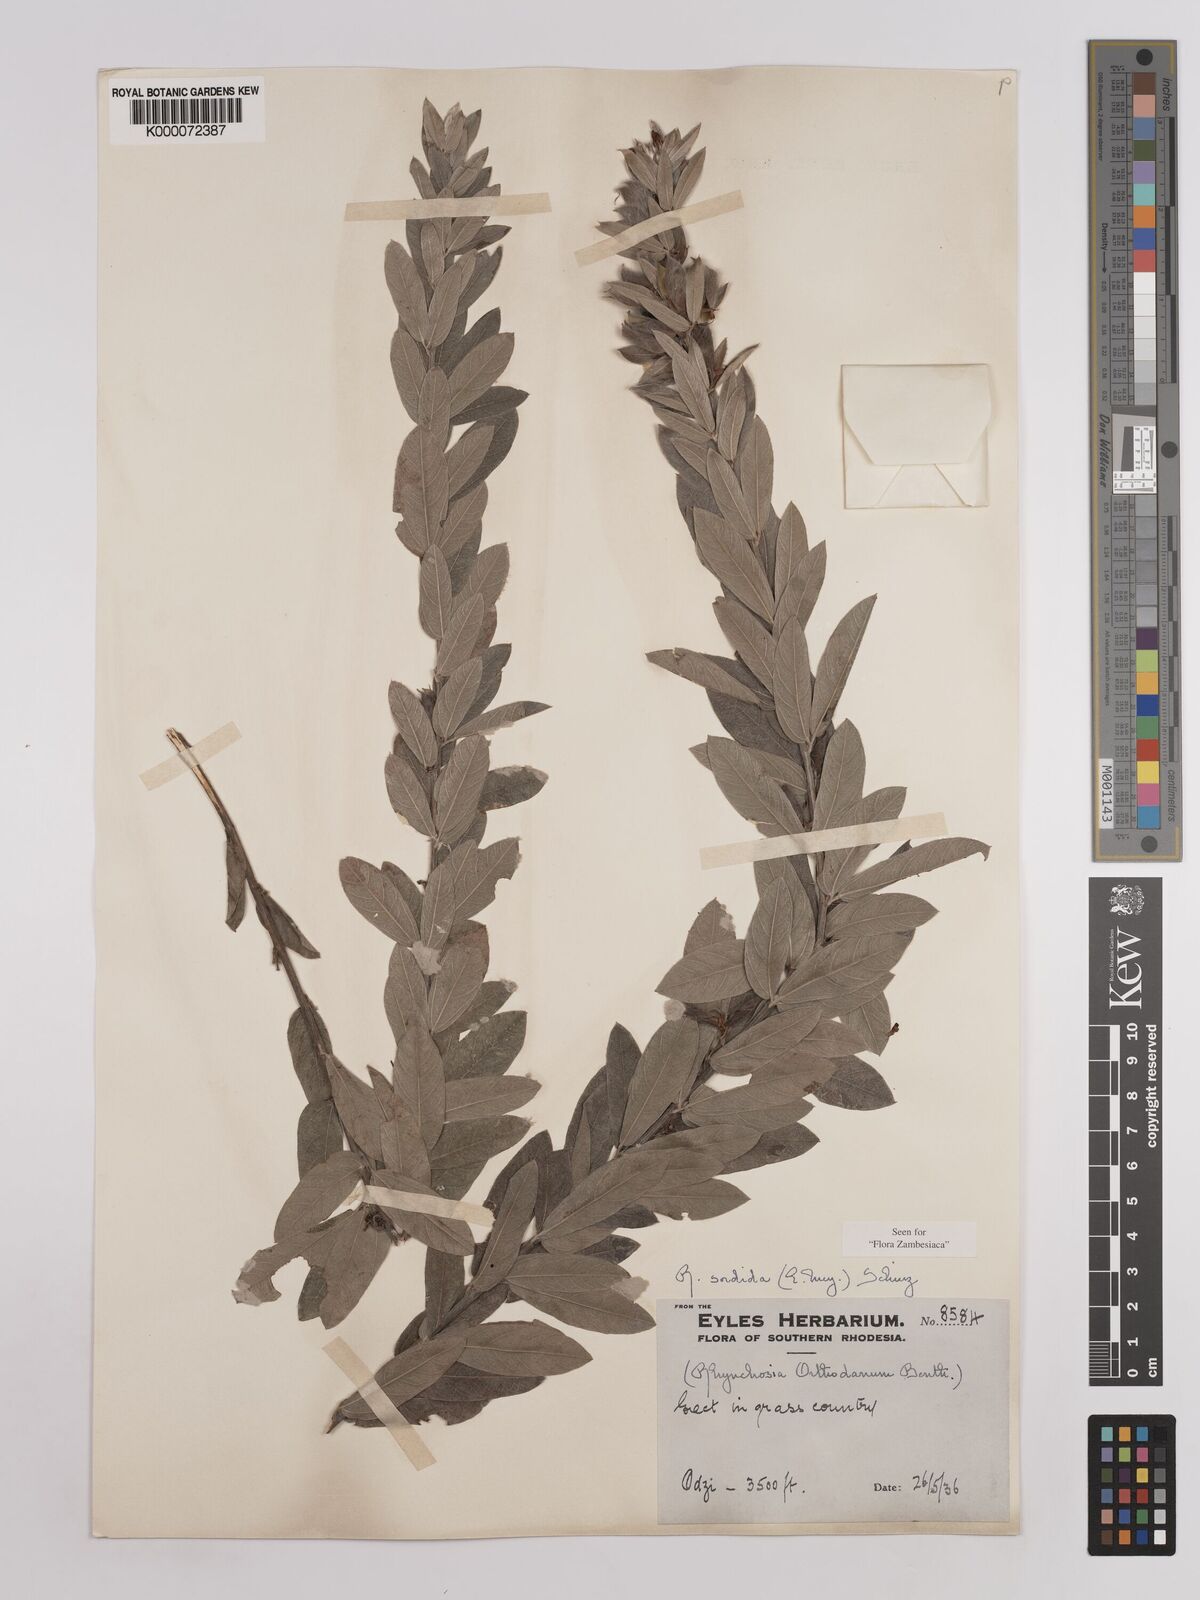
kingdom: Plantae
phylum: Tracheophyta
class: Magnoliopsida
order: Fabales
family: Fabaceae
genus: Rhynchosia
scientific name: Rhynchosia sordida
